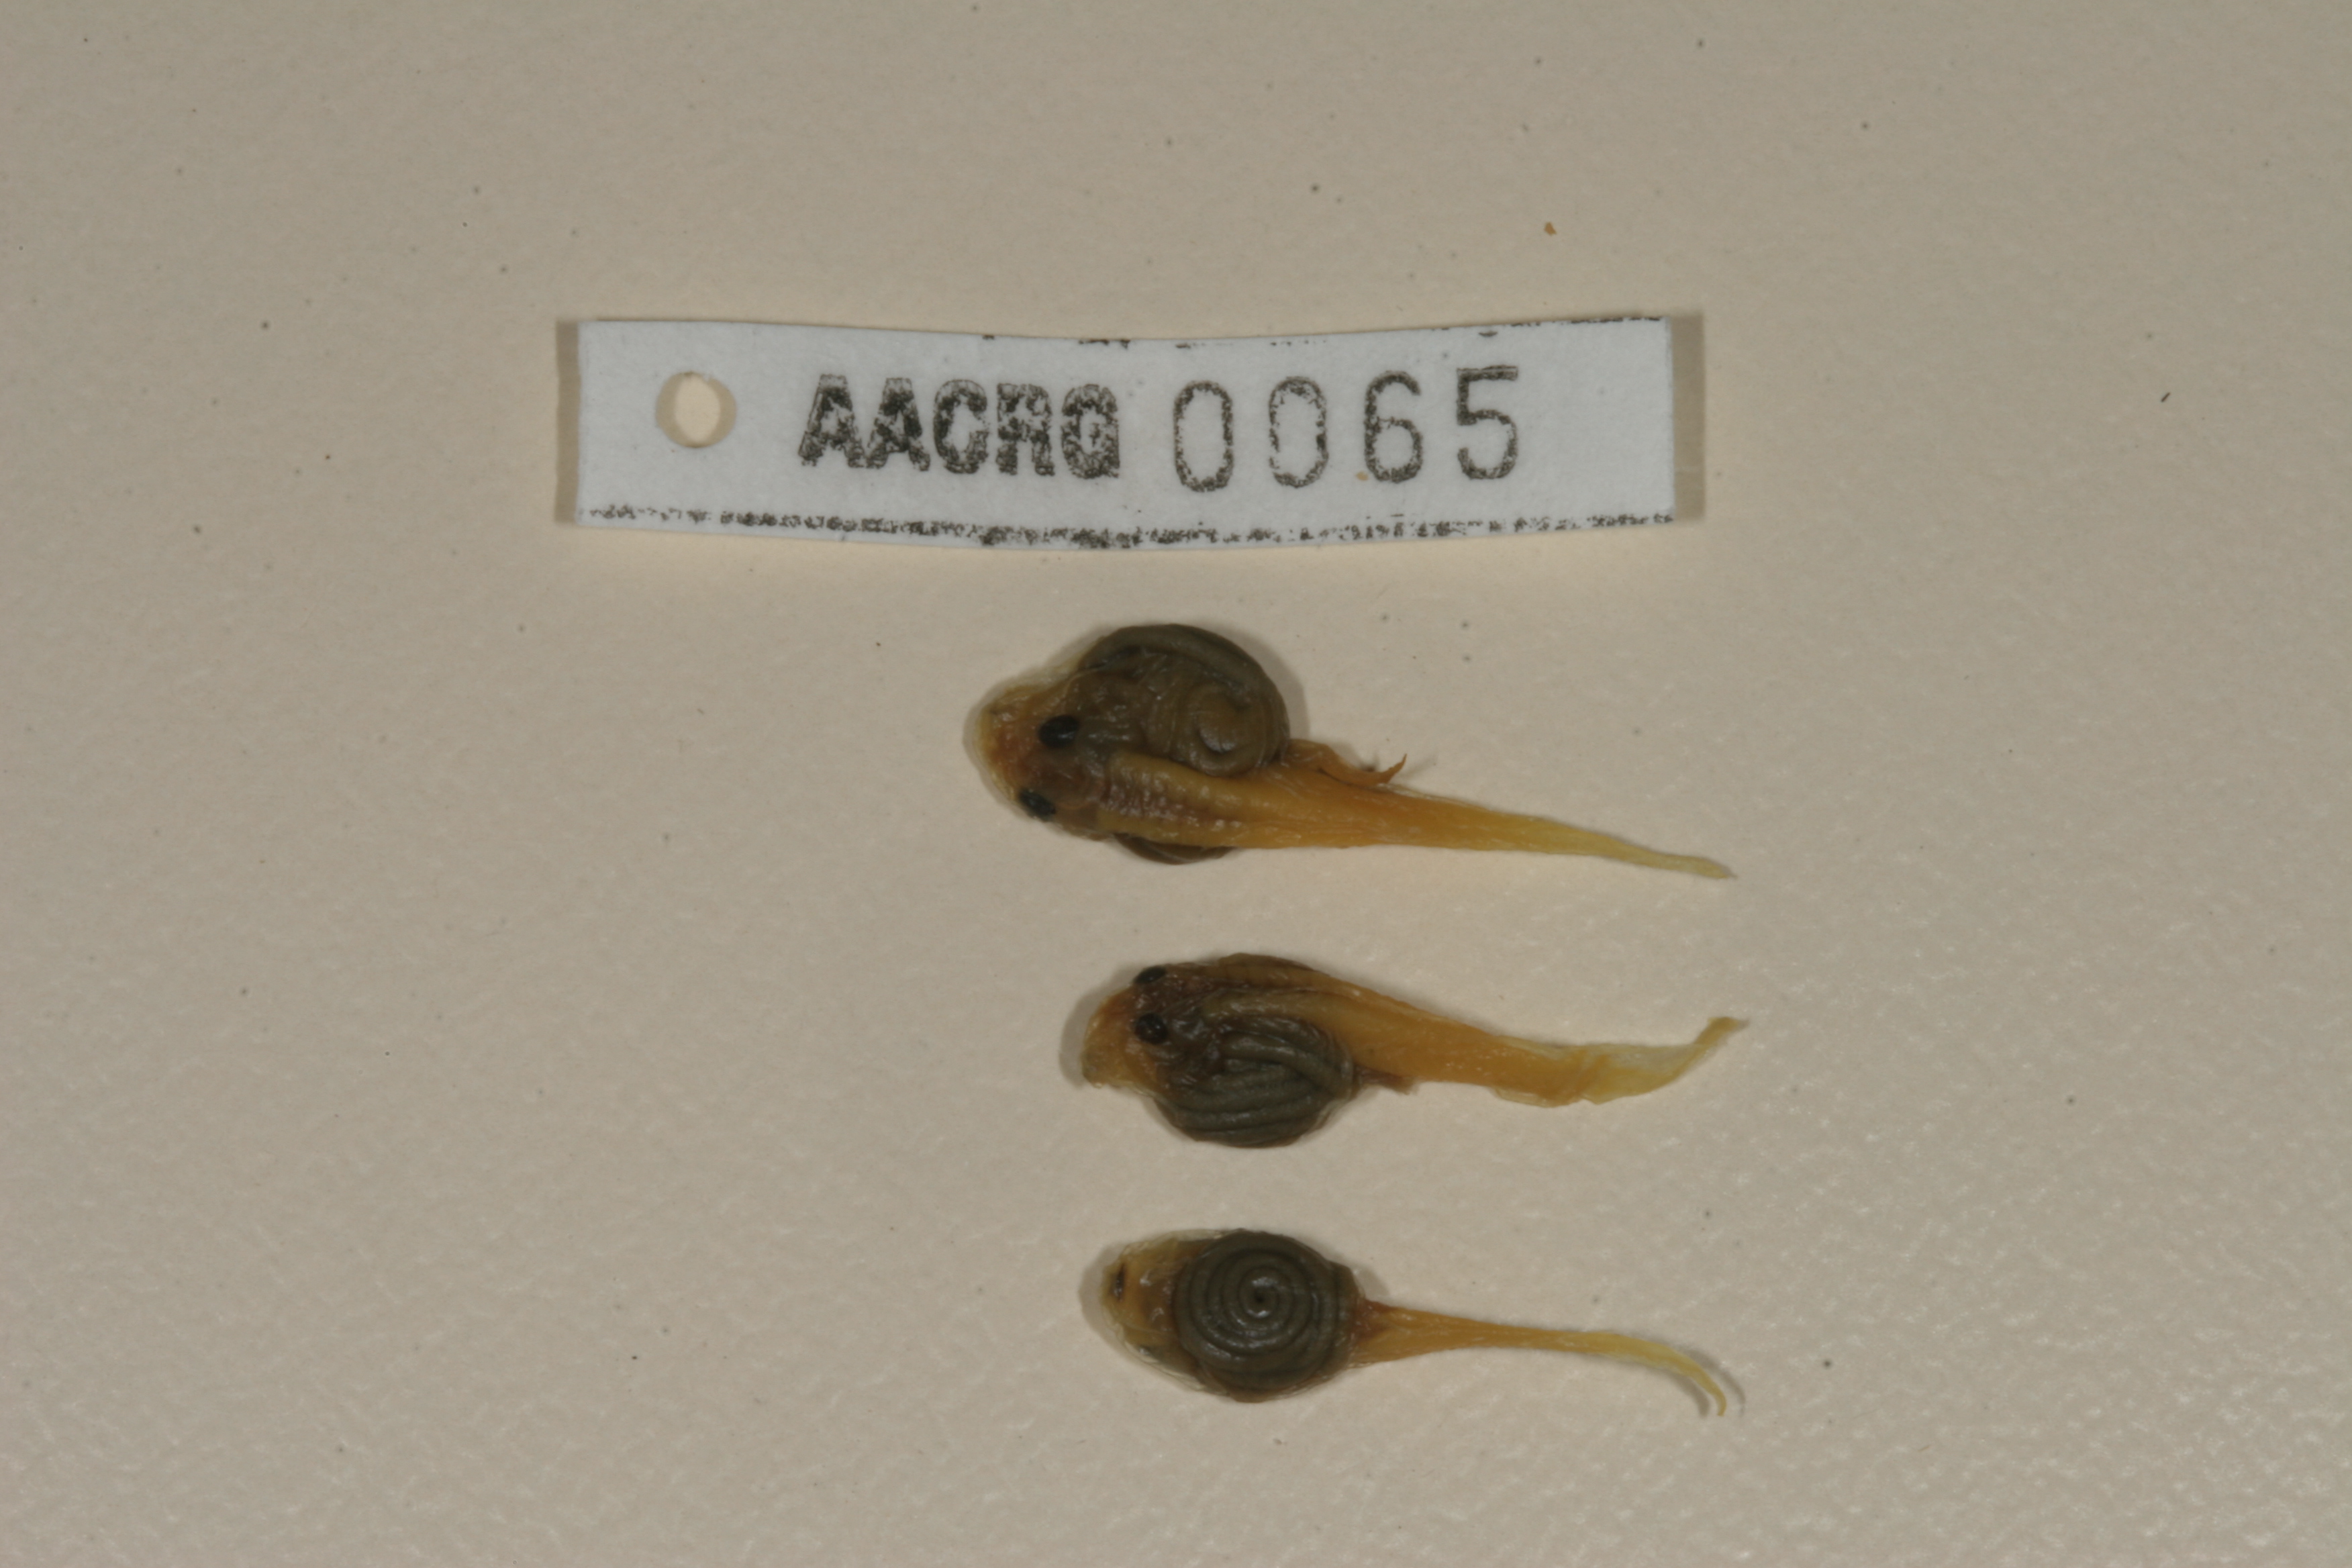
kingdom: Animalia
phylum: Chordata
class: Amphibia
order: Anura
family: Bufonidae
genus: Sclerophrys
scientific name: Sclerophrys capensis
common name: Ranger’s toad
